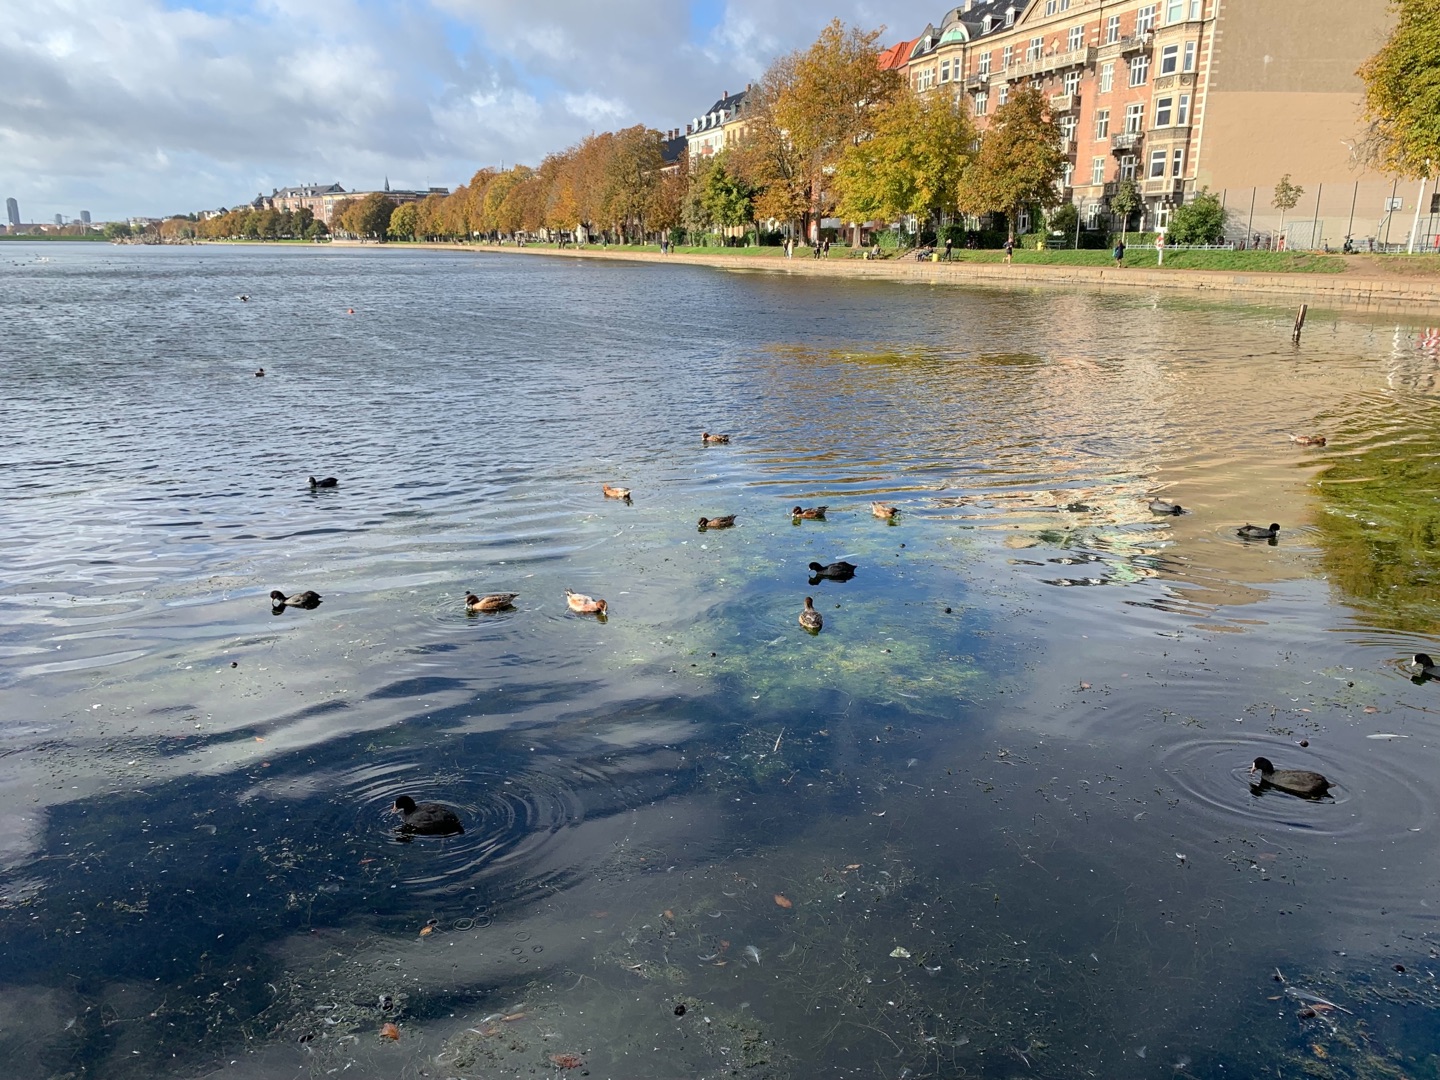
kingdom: Animalia
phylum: Chordata
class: Aves
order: Anseriformes
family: Anatidae
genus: Mareca
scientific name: Mareca penelope
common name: Pibeand
